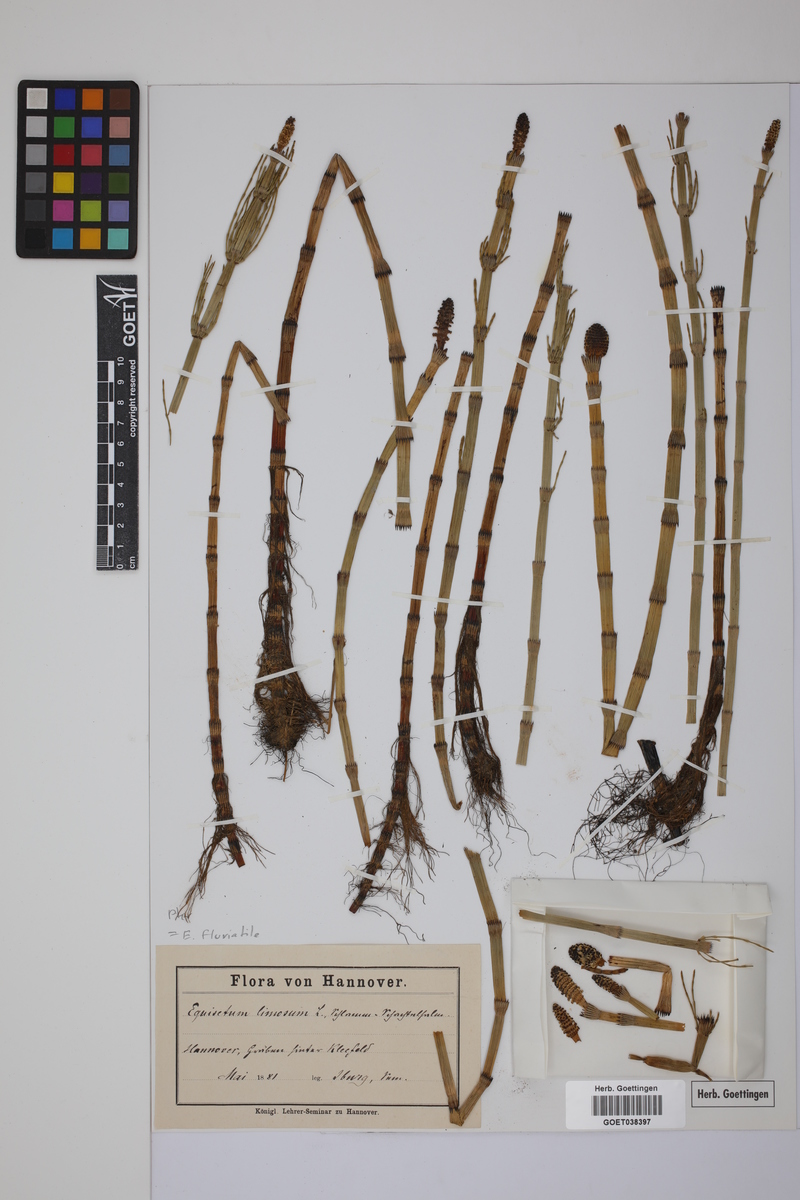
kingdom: Plantae
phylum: Tracheophyta
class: Polypodiopsida
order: Equisetales
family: Equisetaceae
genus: Equisetum
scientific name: Equisetum fluviatile
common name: Water horsetail
